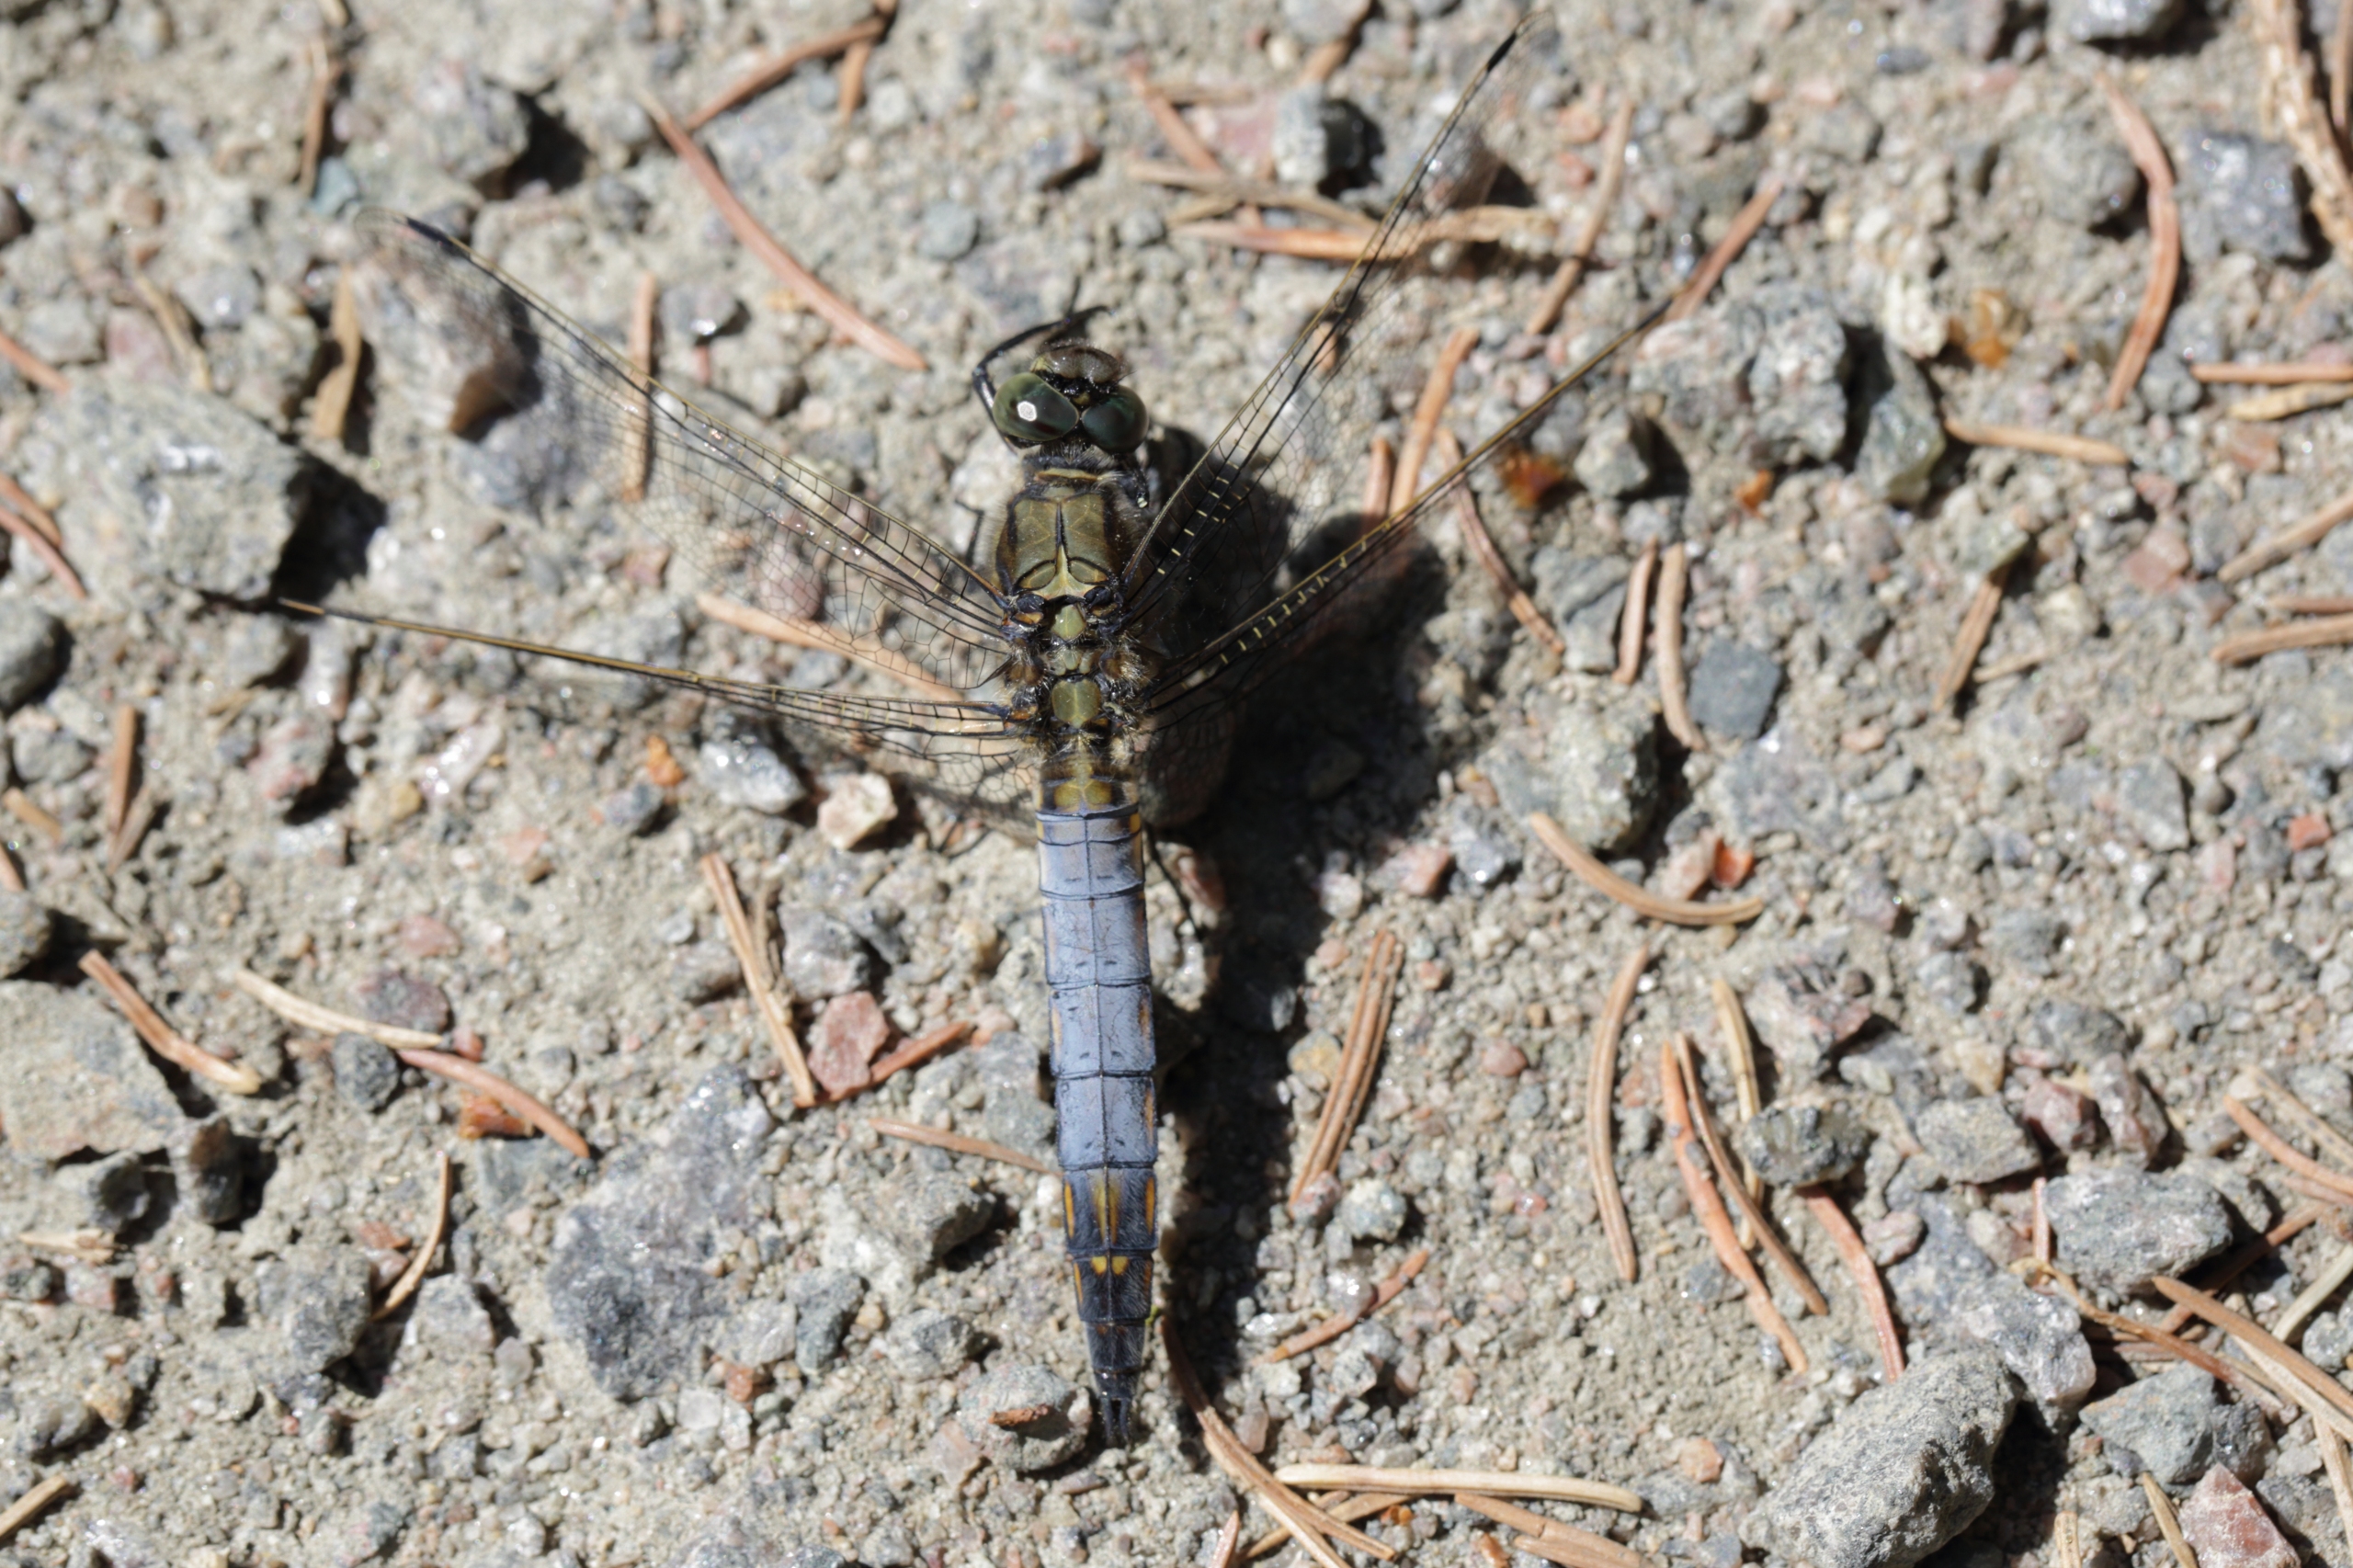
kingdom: Animalia
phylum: Arthropoda
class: Insecta
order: Odonata
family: Libellulidae
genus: Orthetrum
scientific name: Orthetrum cancellatum
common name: Stor blåpil
